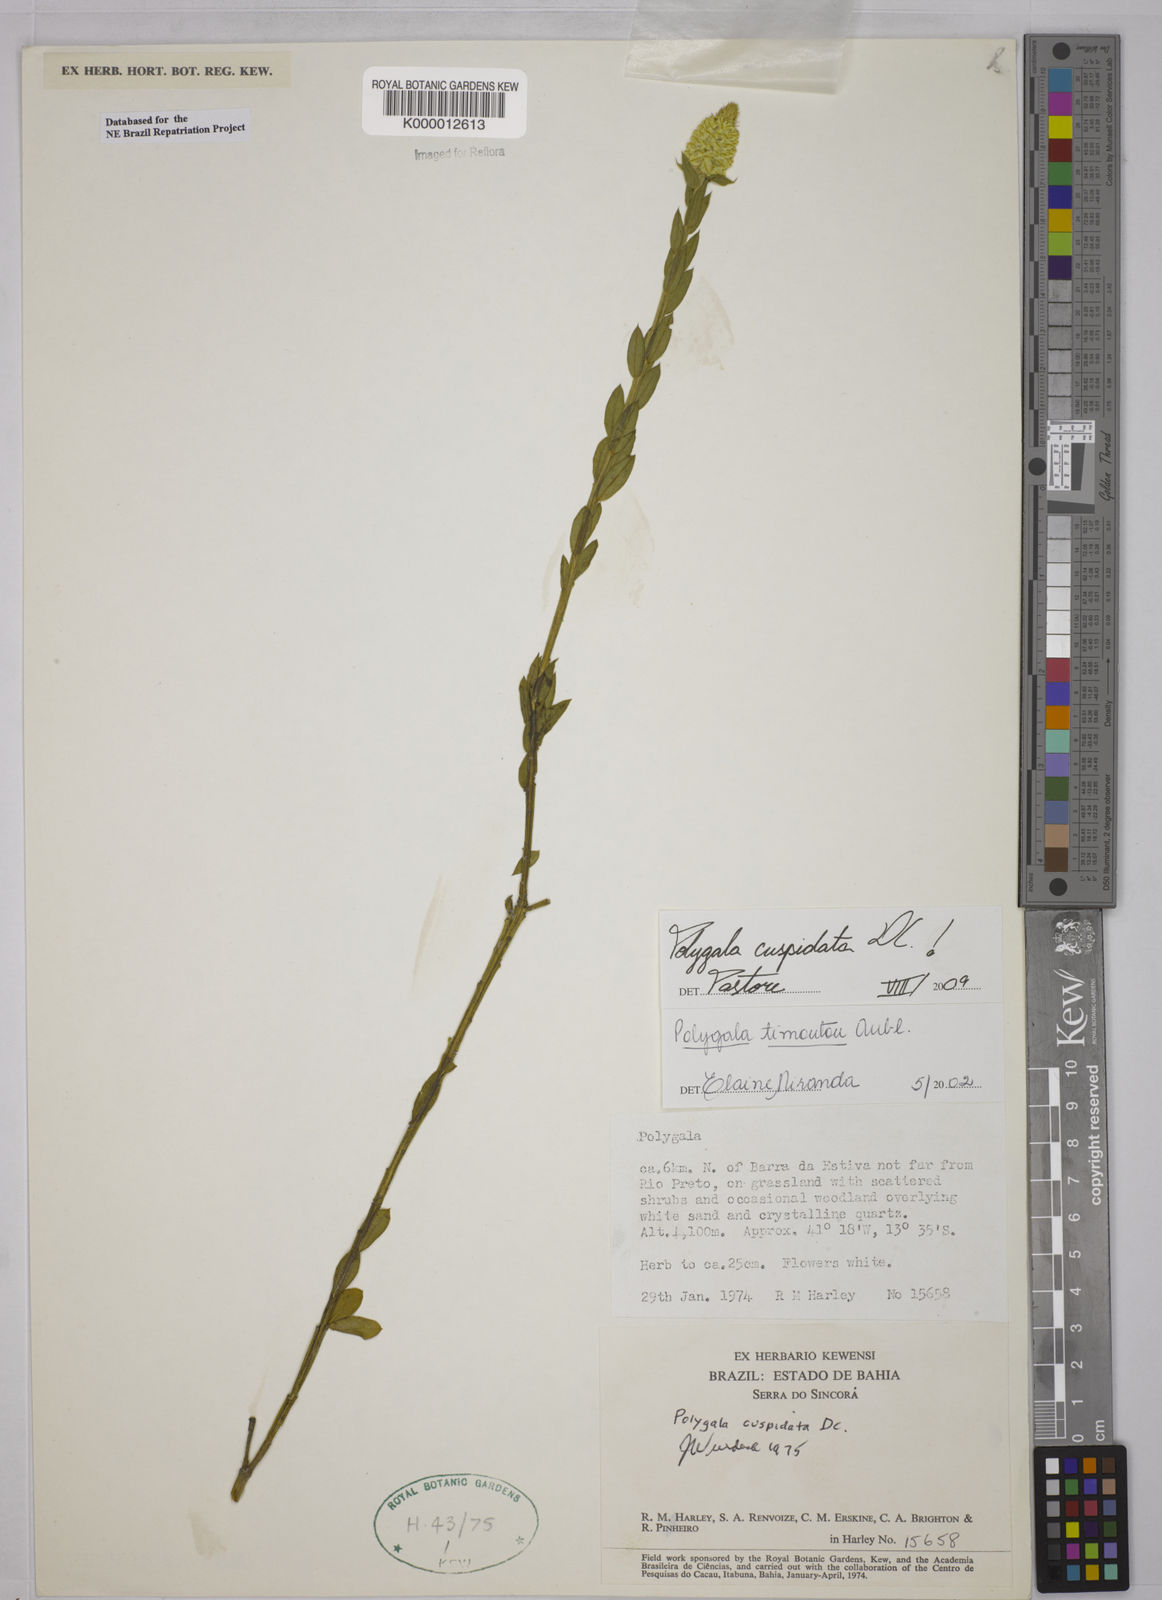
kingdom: Plantae
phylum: Tracheophyta
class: Magnoliopsida
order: Fabales
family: Polygalaceae
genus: Polygala
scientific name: Polygala timoutou
